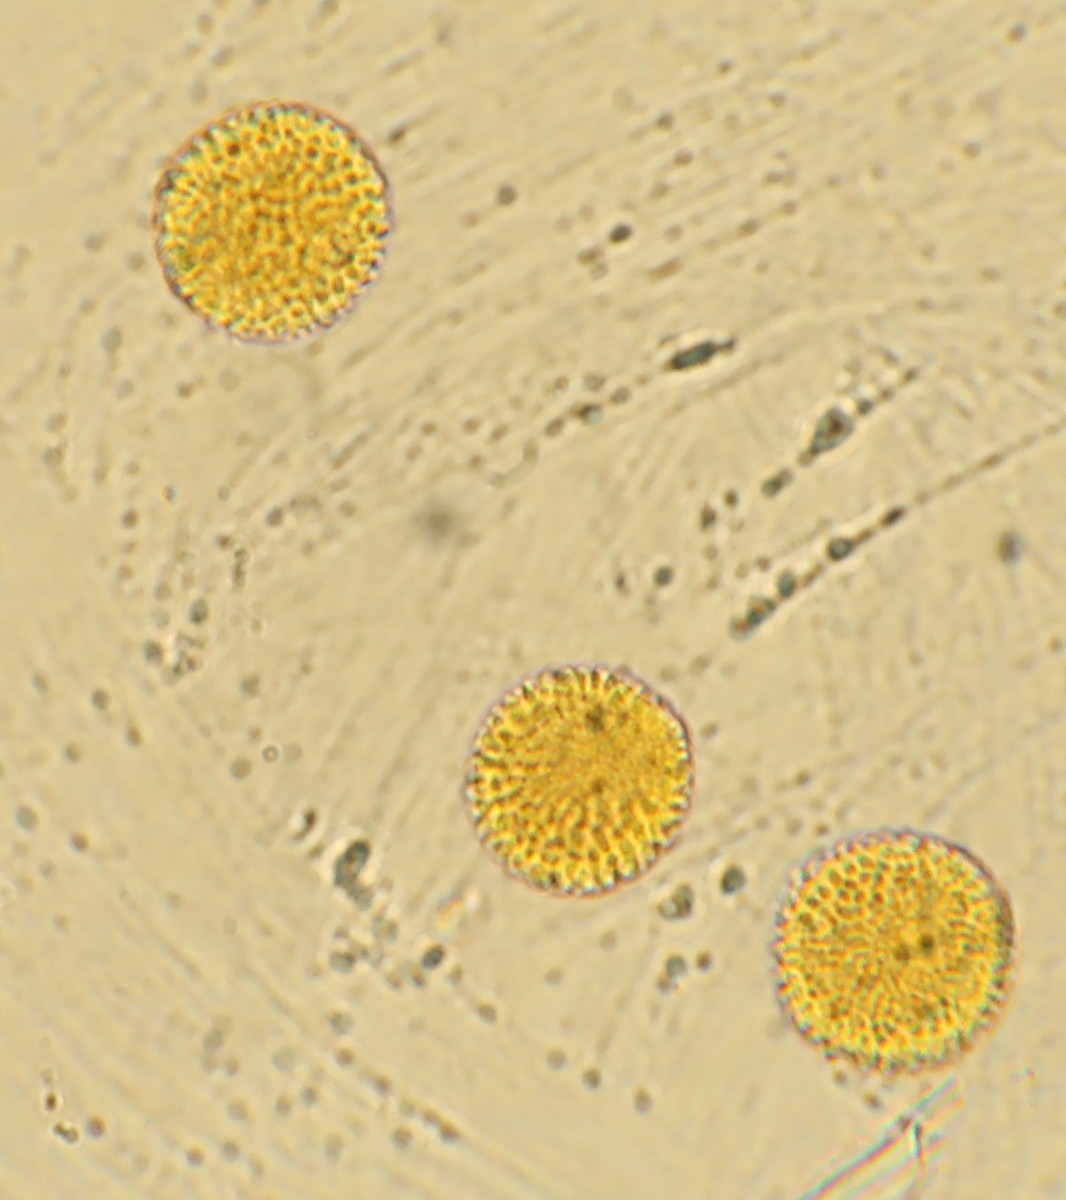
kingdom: Fungi
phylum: Basidiomycota
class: Pucciniomycetes
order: Pucciniales
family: Melampsoraceae
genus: Melampsora
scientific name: Melampsora hypericorum
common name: Tutsan rust
